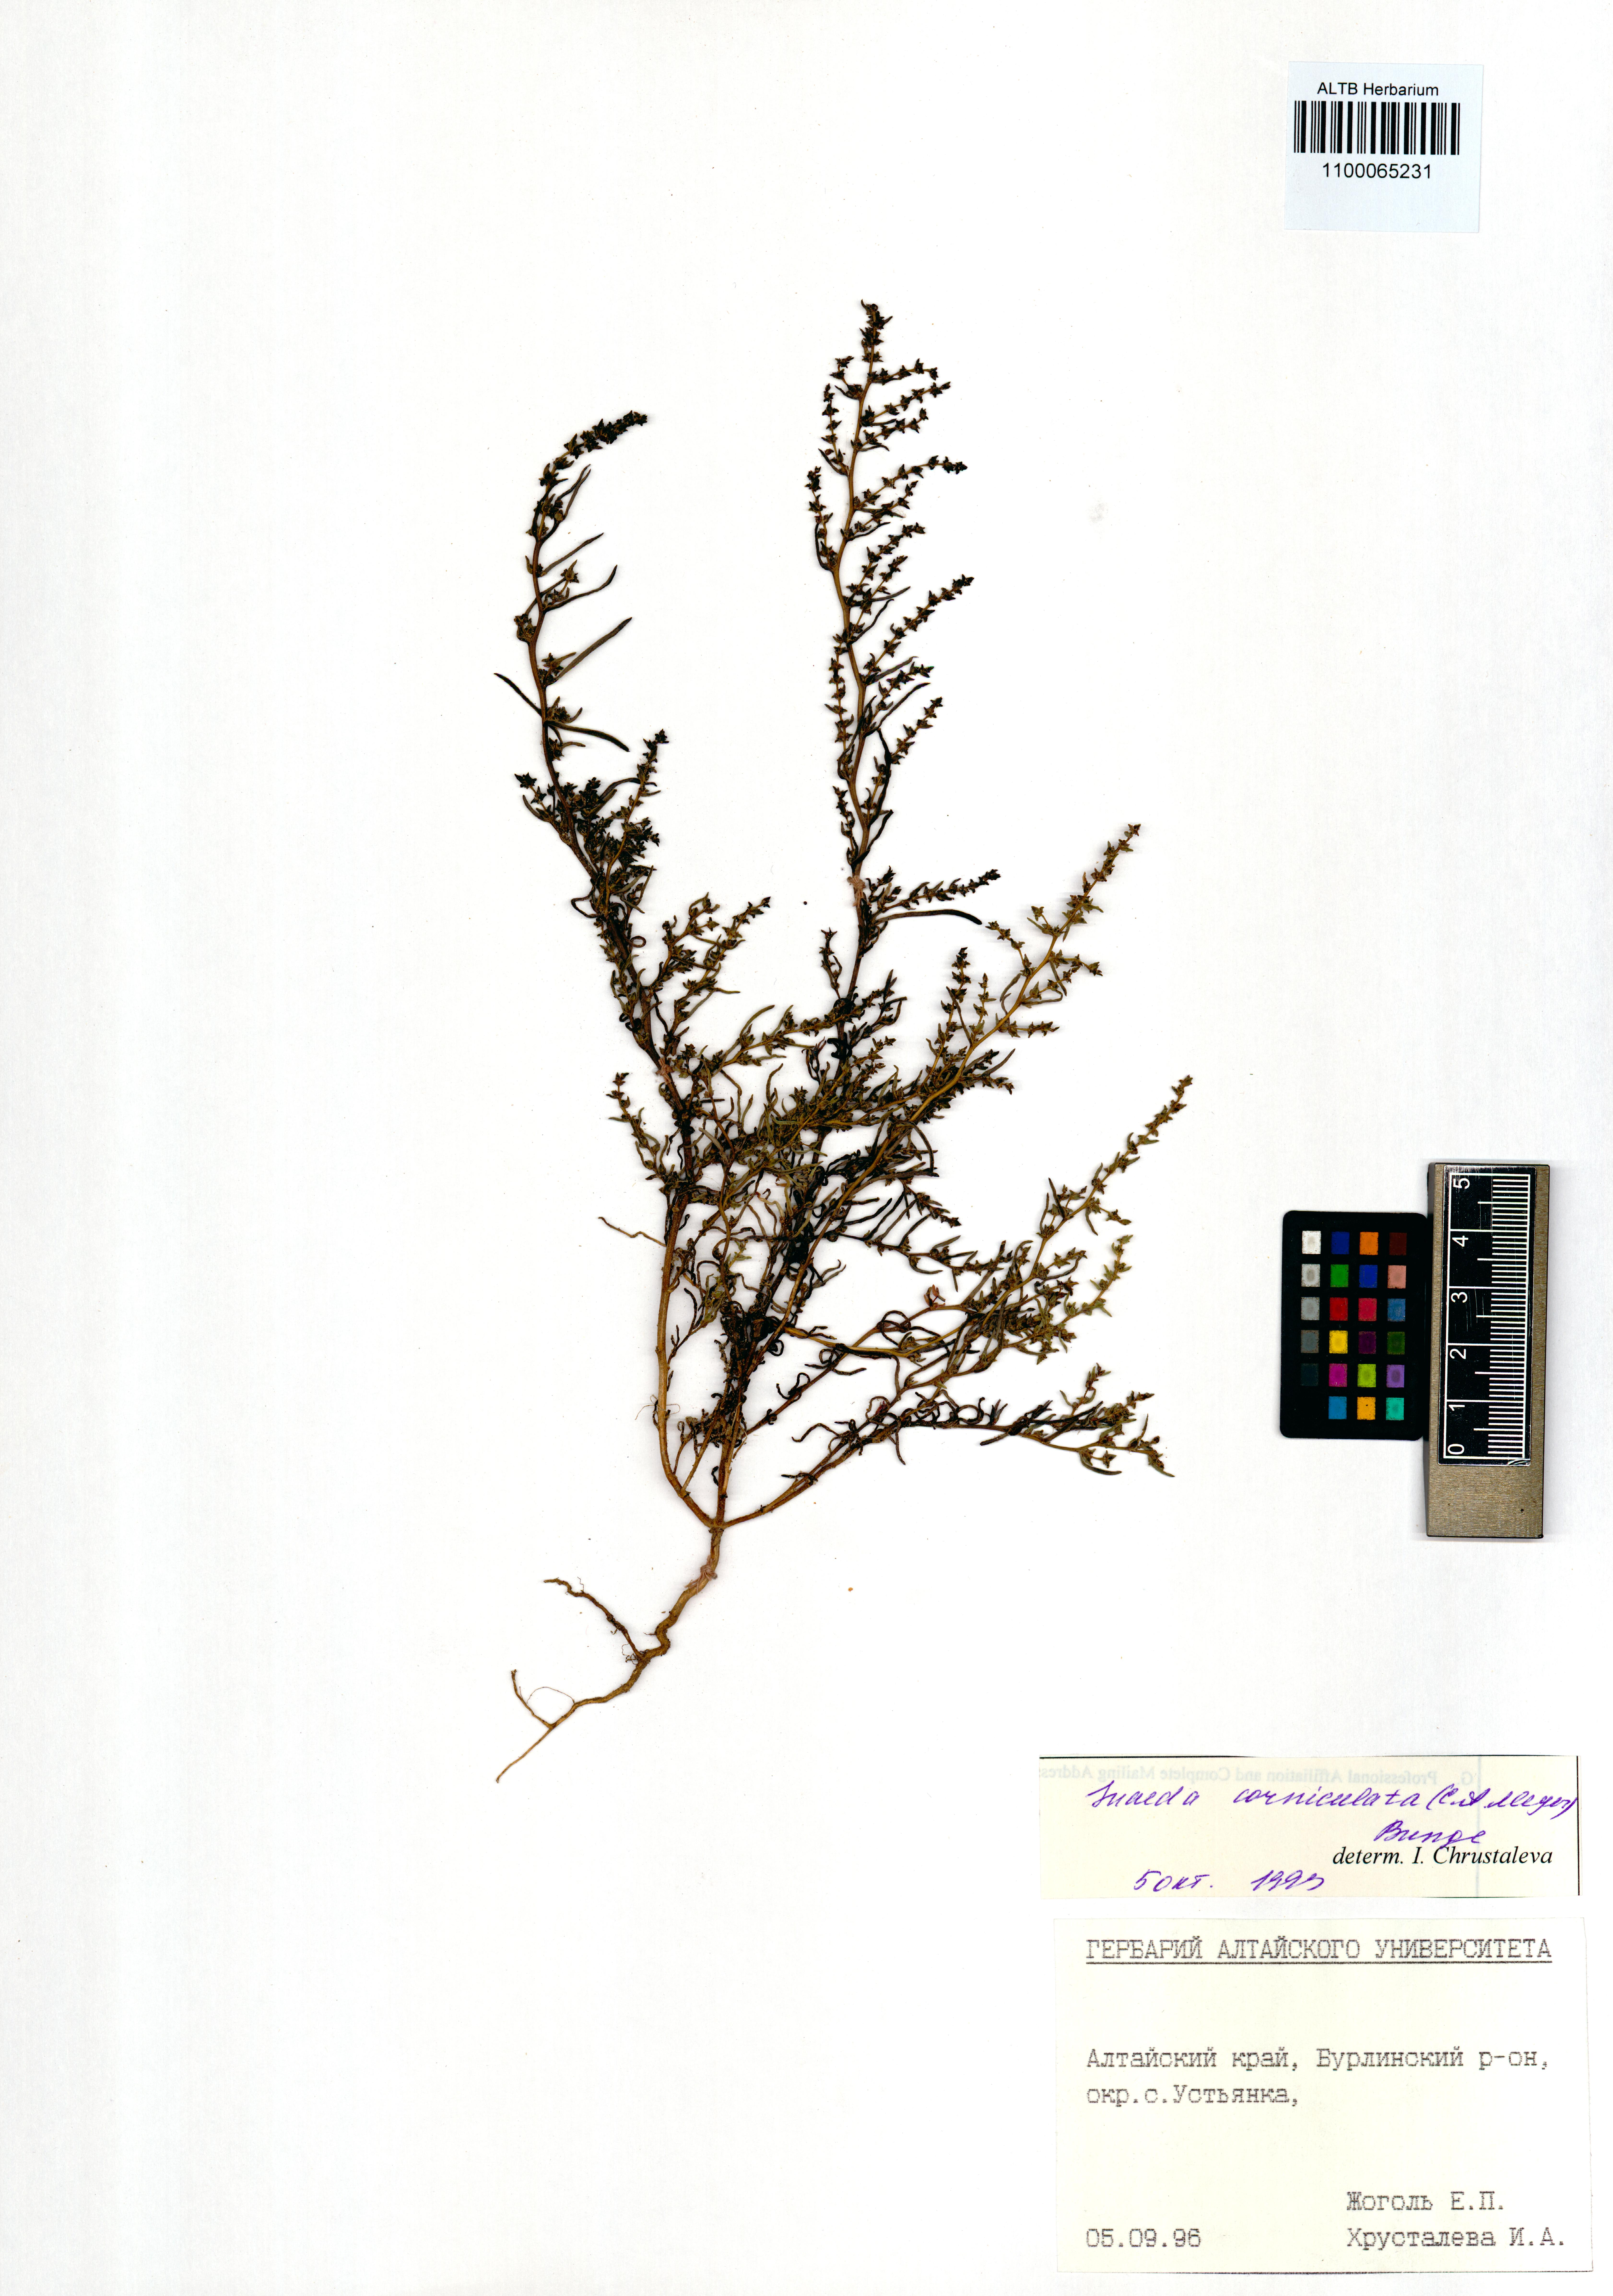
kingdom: Plantae
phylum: Tracheophyta
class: Magnoliopsida
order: Caryophyllales
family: Amaranthaceae
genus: Suaeda
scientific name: Suaeda corniculata
